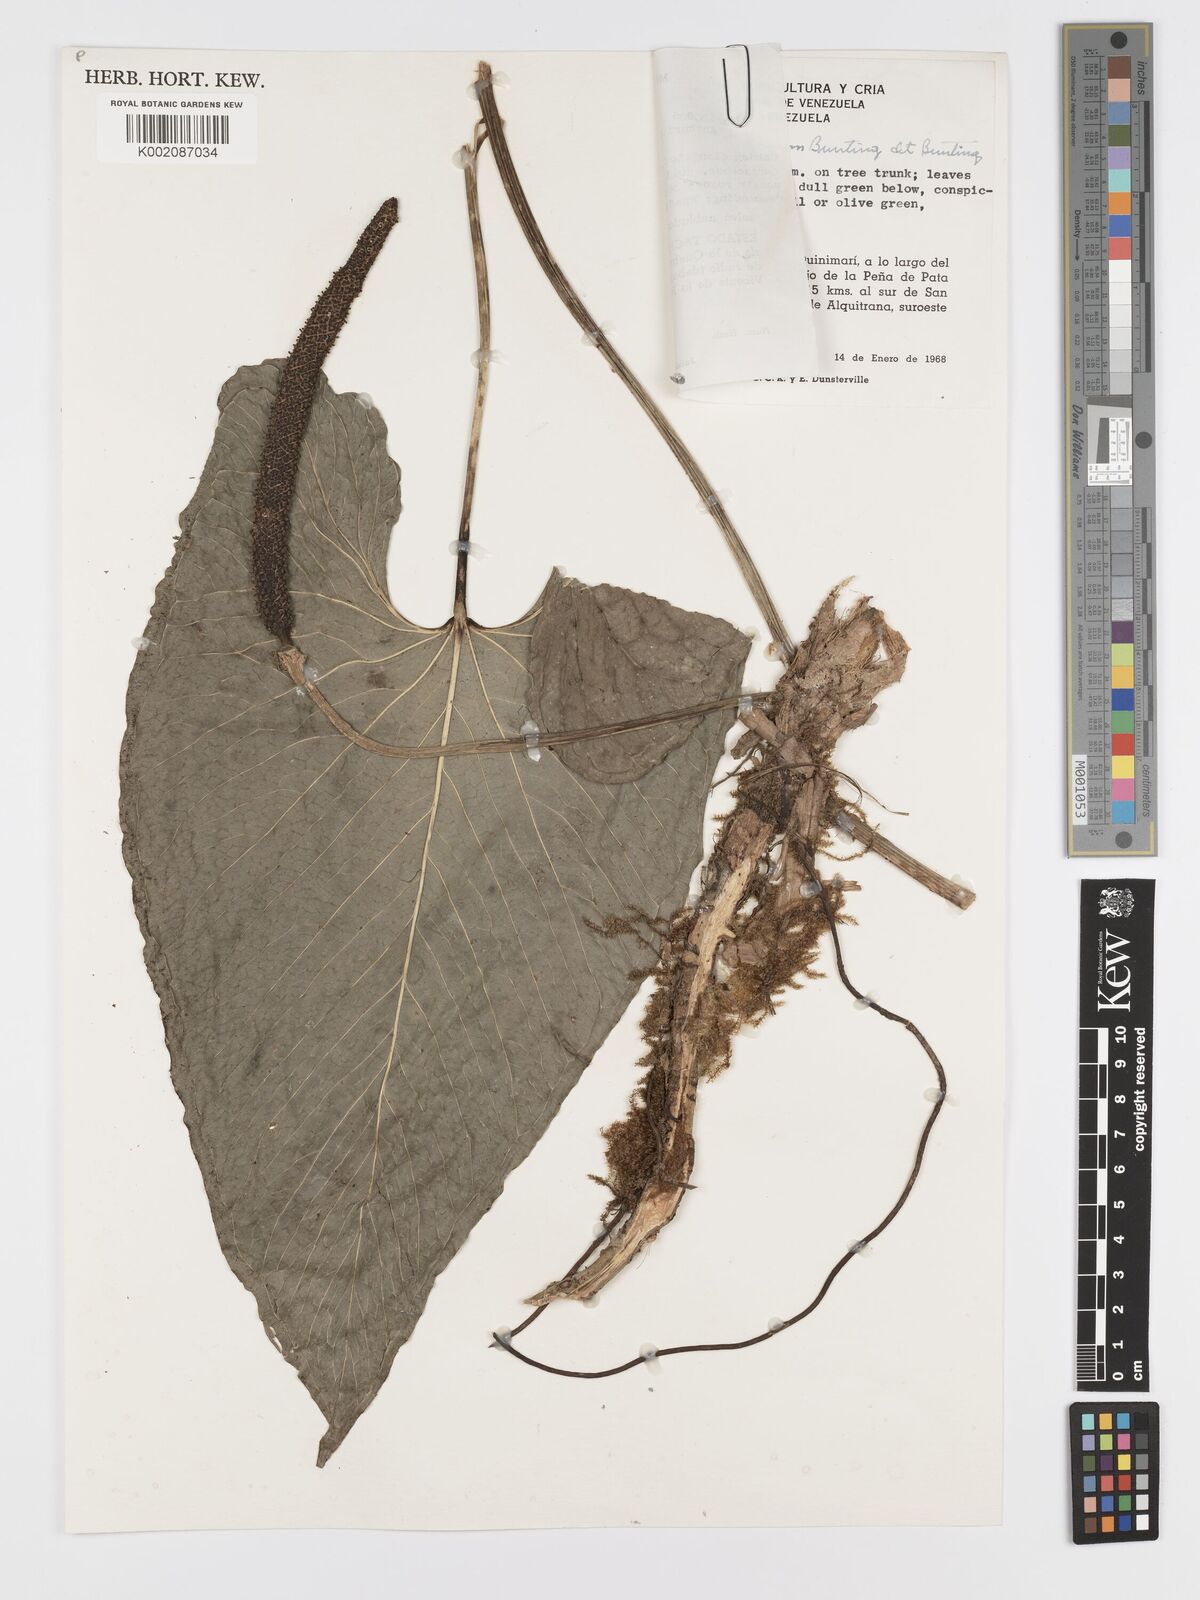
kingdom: Plantae
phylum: Tracheophyta
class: Liliopsida
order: Alismatales
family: Araceae
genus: Anthurium
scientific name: Anthurium smaragdinum
